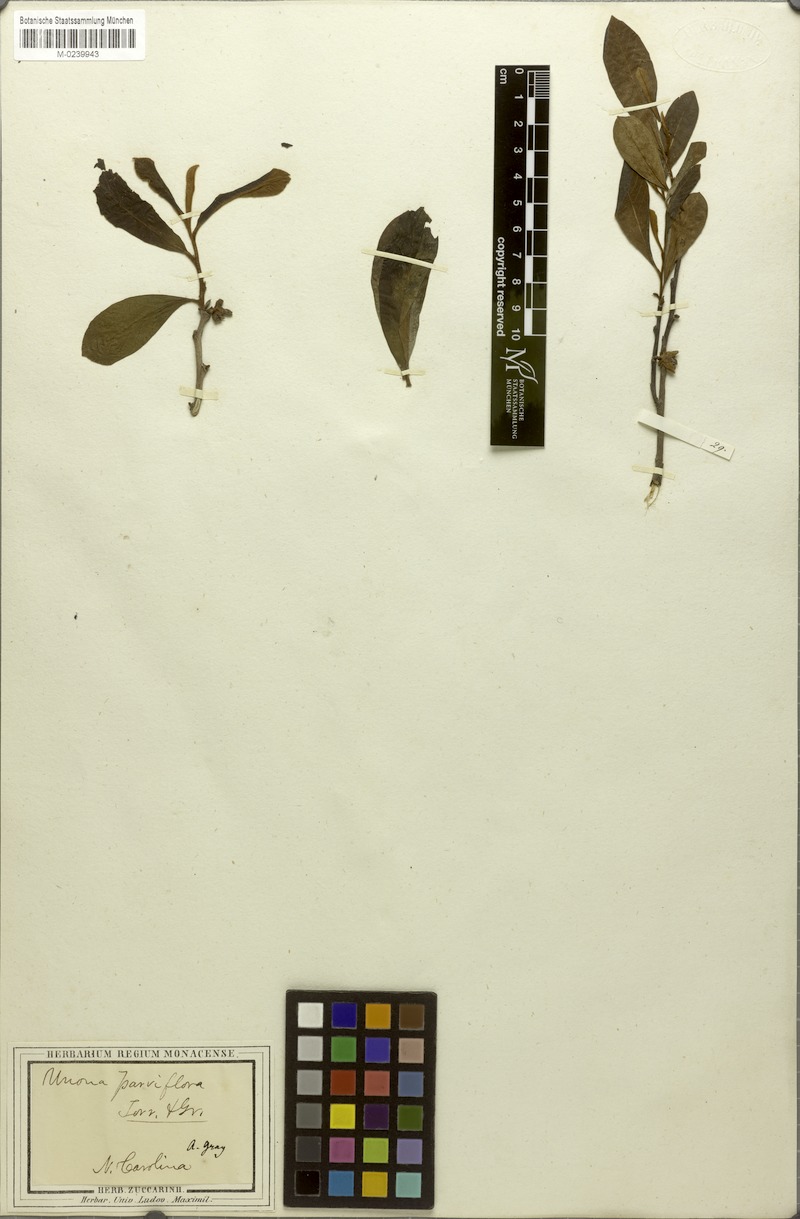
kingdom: Plantae
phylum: Tracheophyta
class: Magnoliopsida
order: Magnoliales
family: Annonaceae
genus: Asimina
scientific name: Asimina parviflora
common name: Dwarf pawpaw
